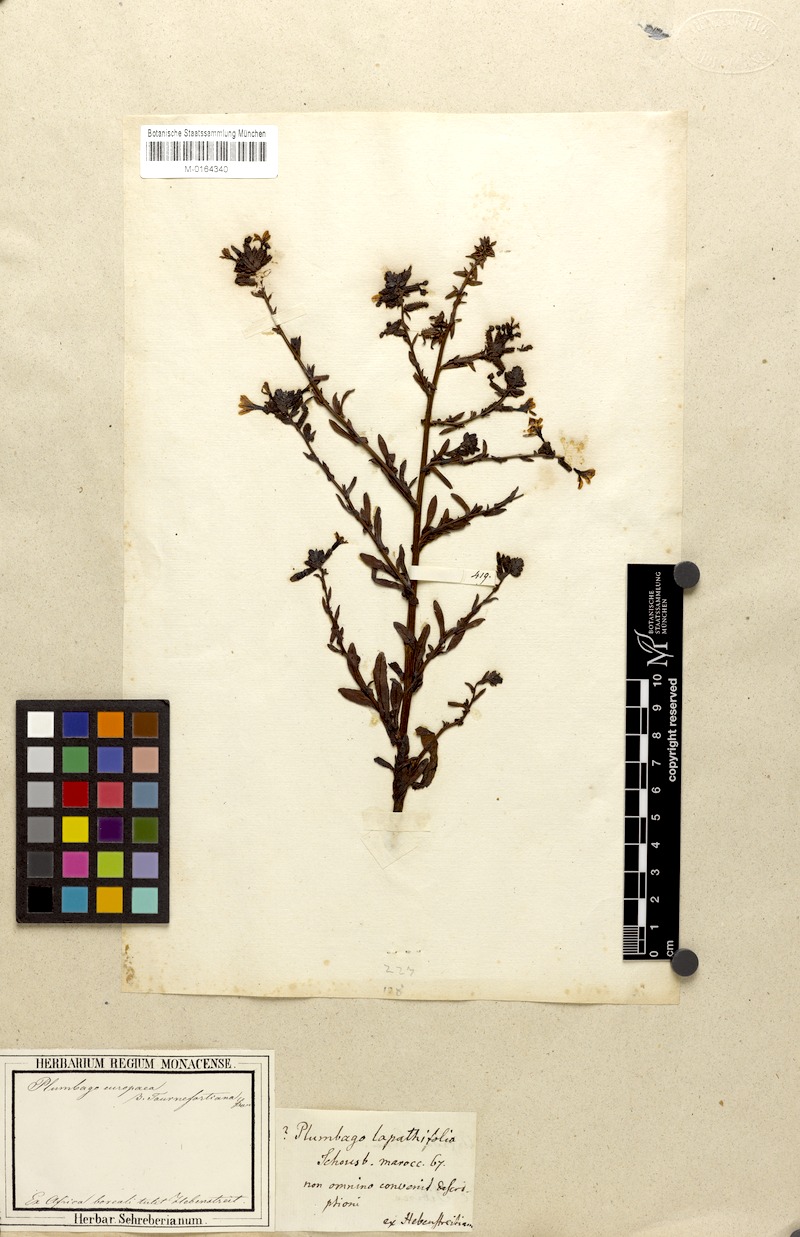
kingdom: Plantae
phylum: Tracheophyta
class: Magnoliopsida
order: Caryophyllales
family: Plumbaginaceae
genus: Plumbago
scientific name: Plumbago europaea
